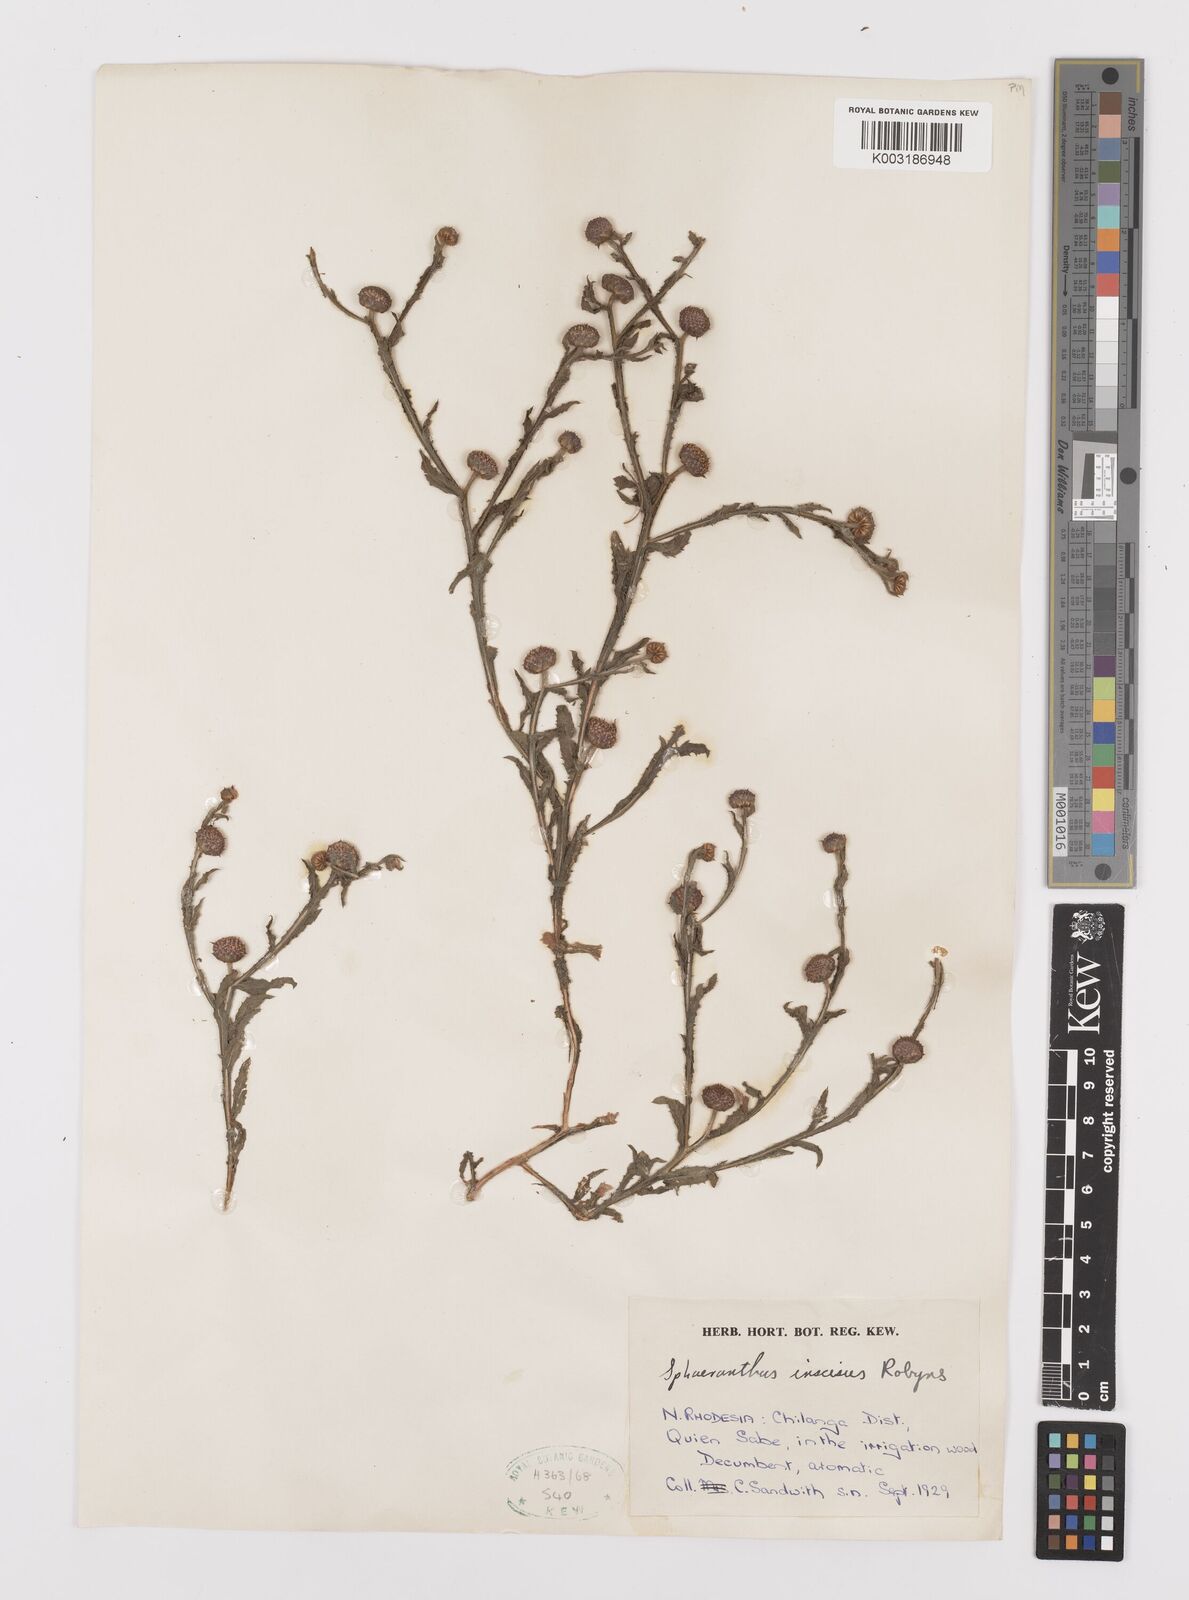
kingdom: Plantae
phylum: Tracheophyta
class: Magnoliopsida
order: Asterales
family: Asteraceae
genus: Sphaeranthus
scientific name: Sphaeranthus peduncularis
